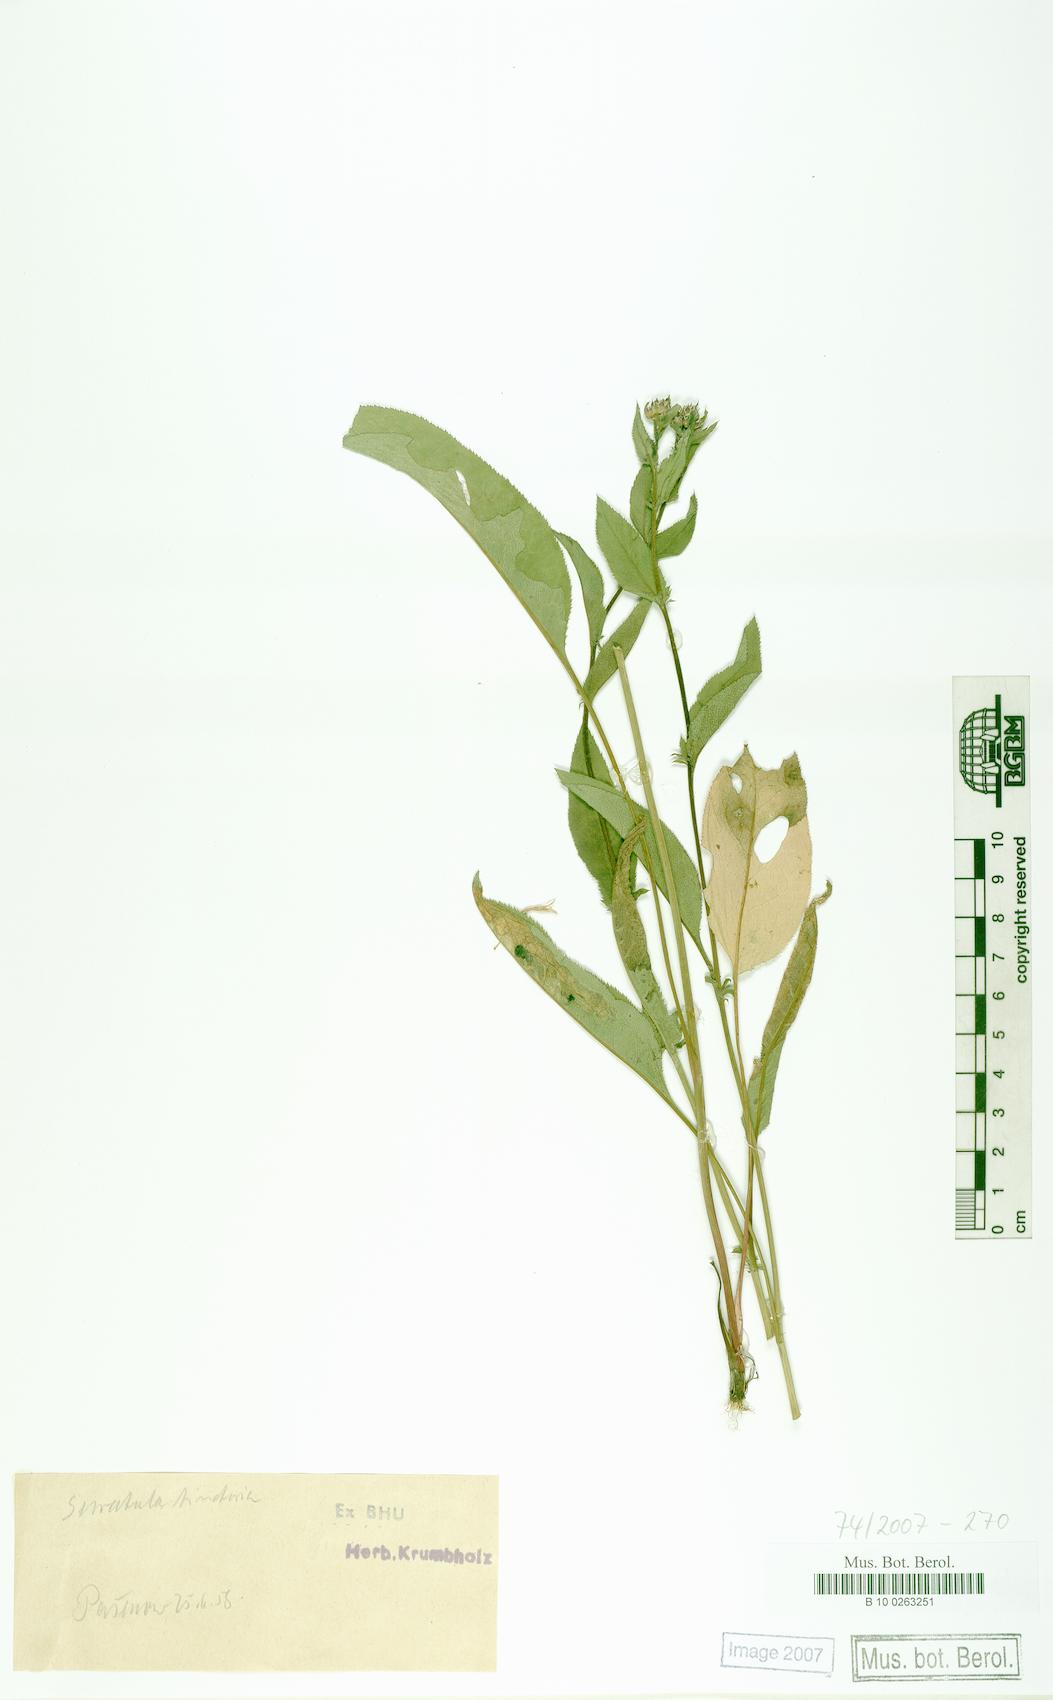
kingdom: Plantae
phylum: Tracheophyta
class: Magnoliopsida
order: Asterales
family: Asteraceae
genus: Serratula
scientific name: Serratula tinctoria
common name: Saw-wort
